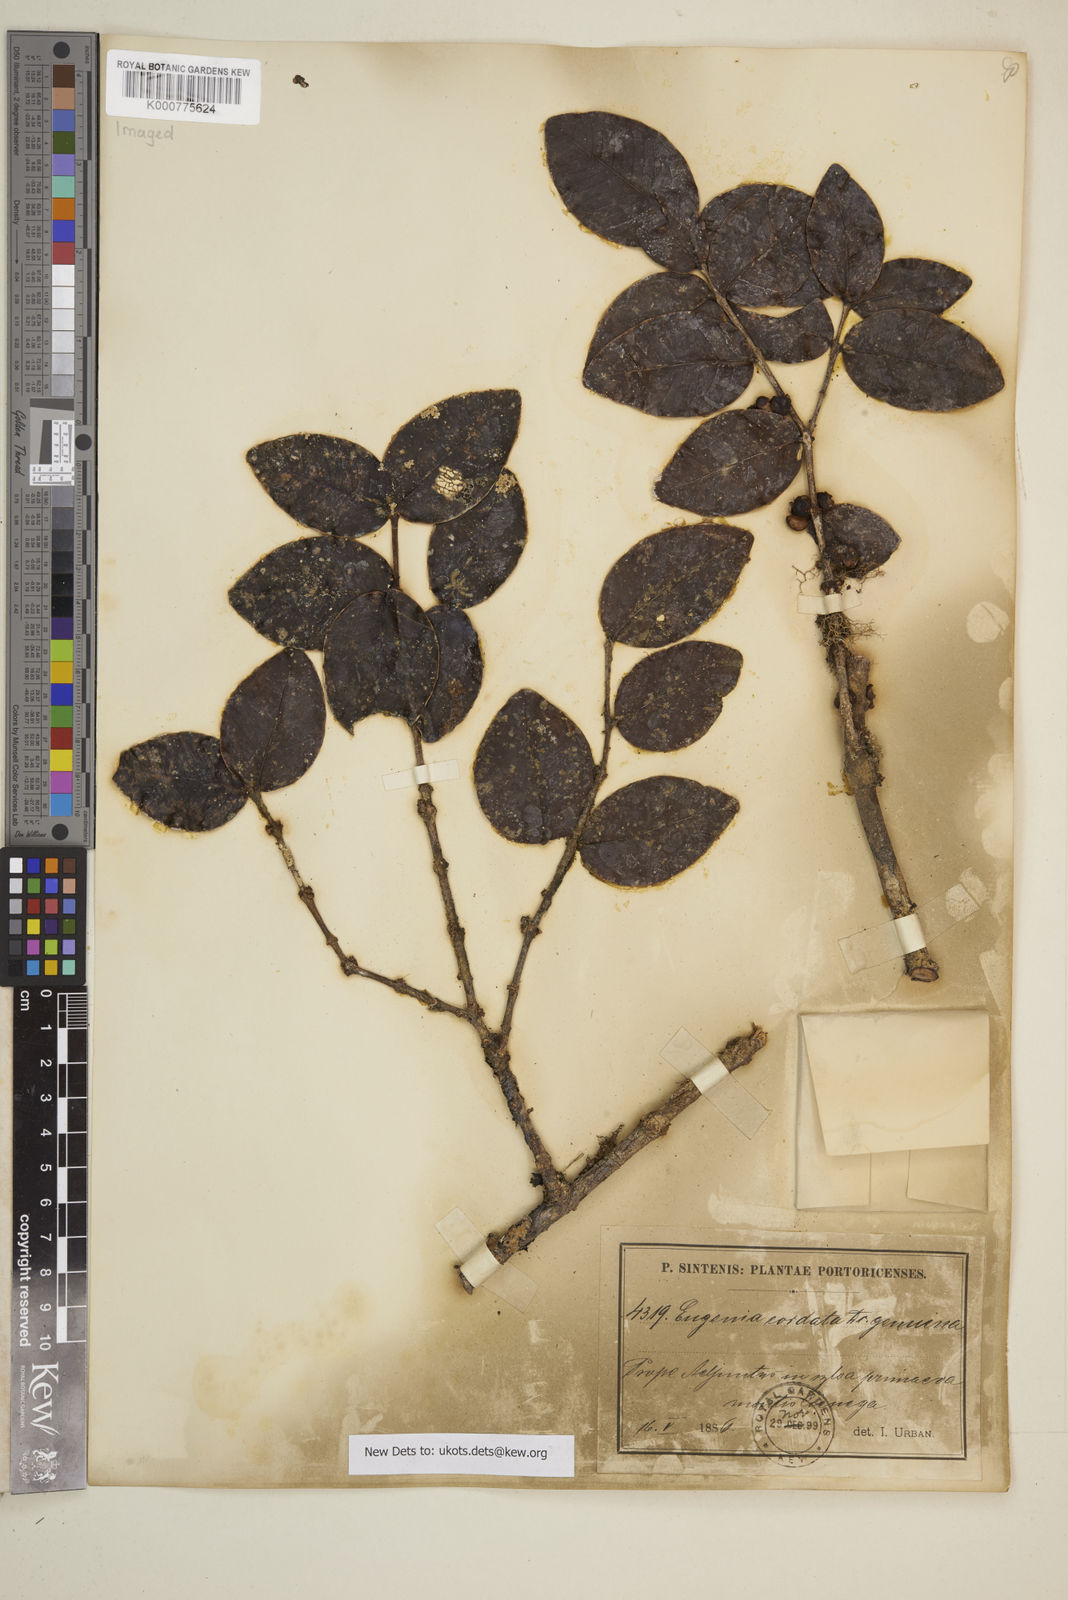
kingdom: Plantae
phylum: Tracheophyta
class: Magnoliopsida
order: Myrtales
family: Myrtaceae
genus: Eugenia
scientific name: Eugenia cordata
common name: Lathberry
